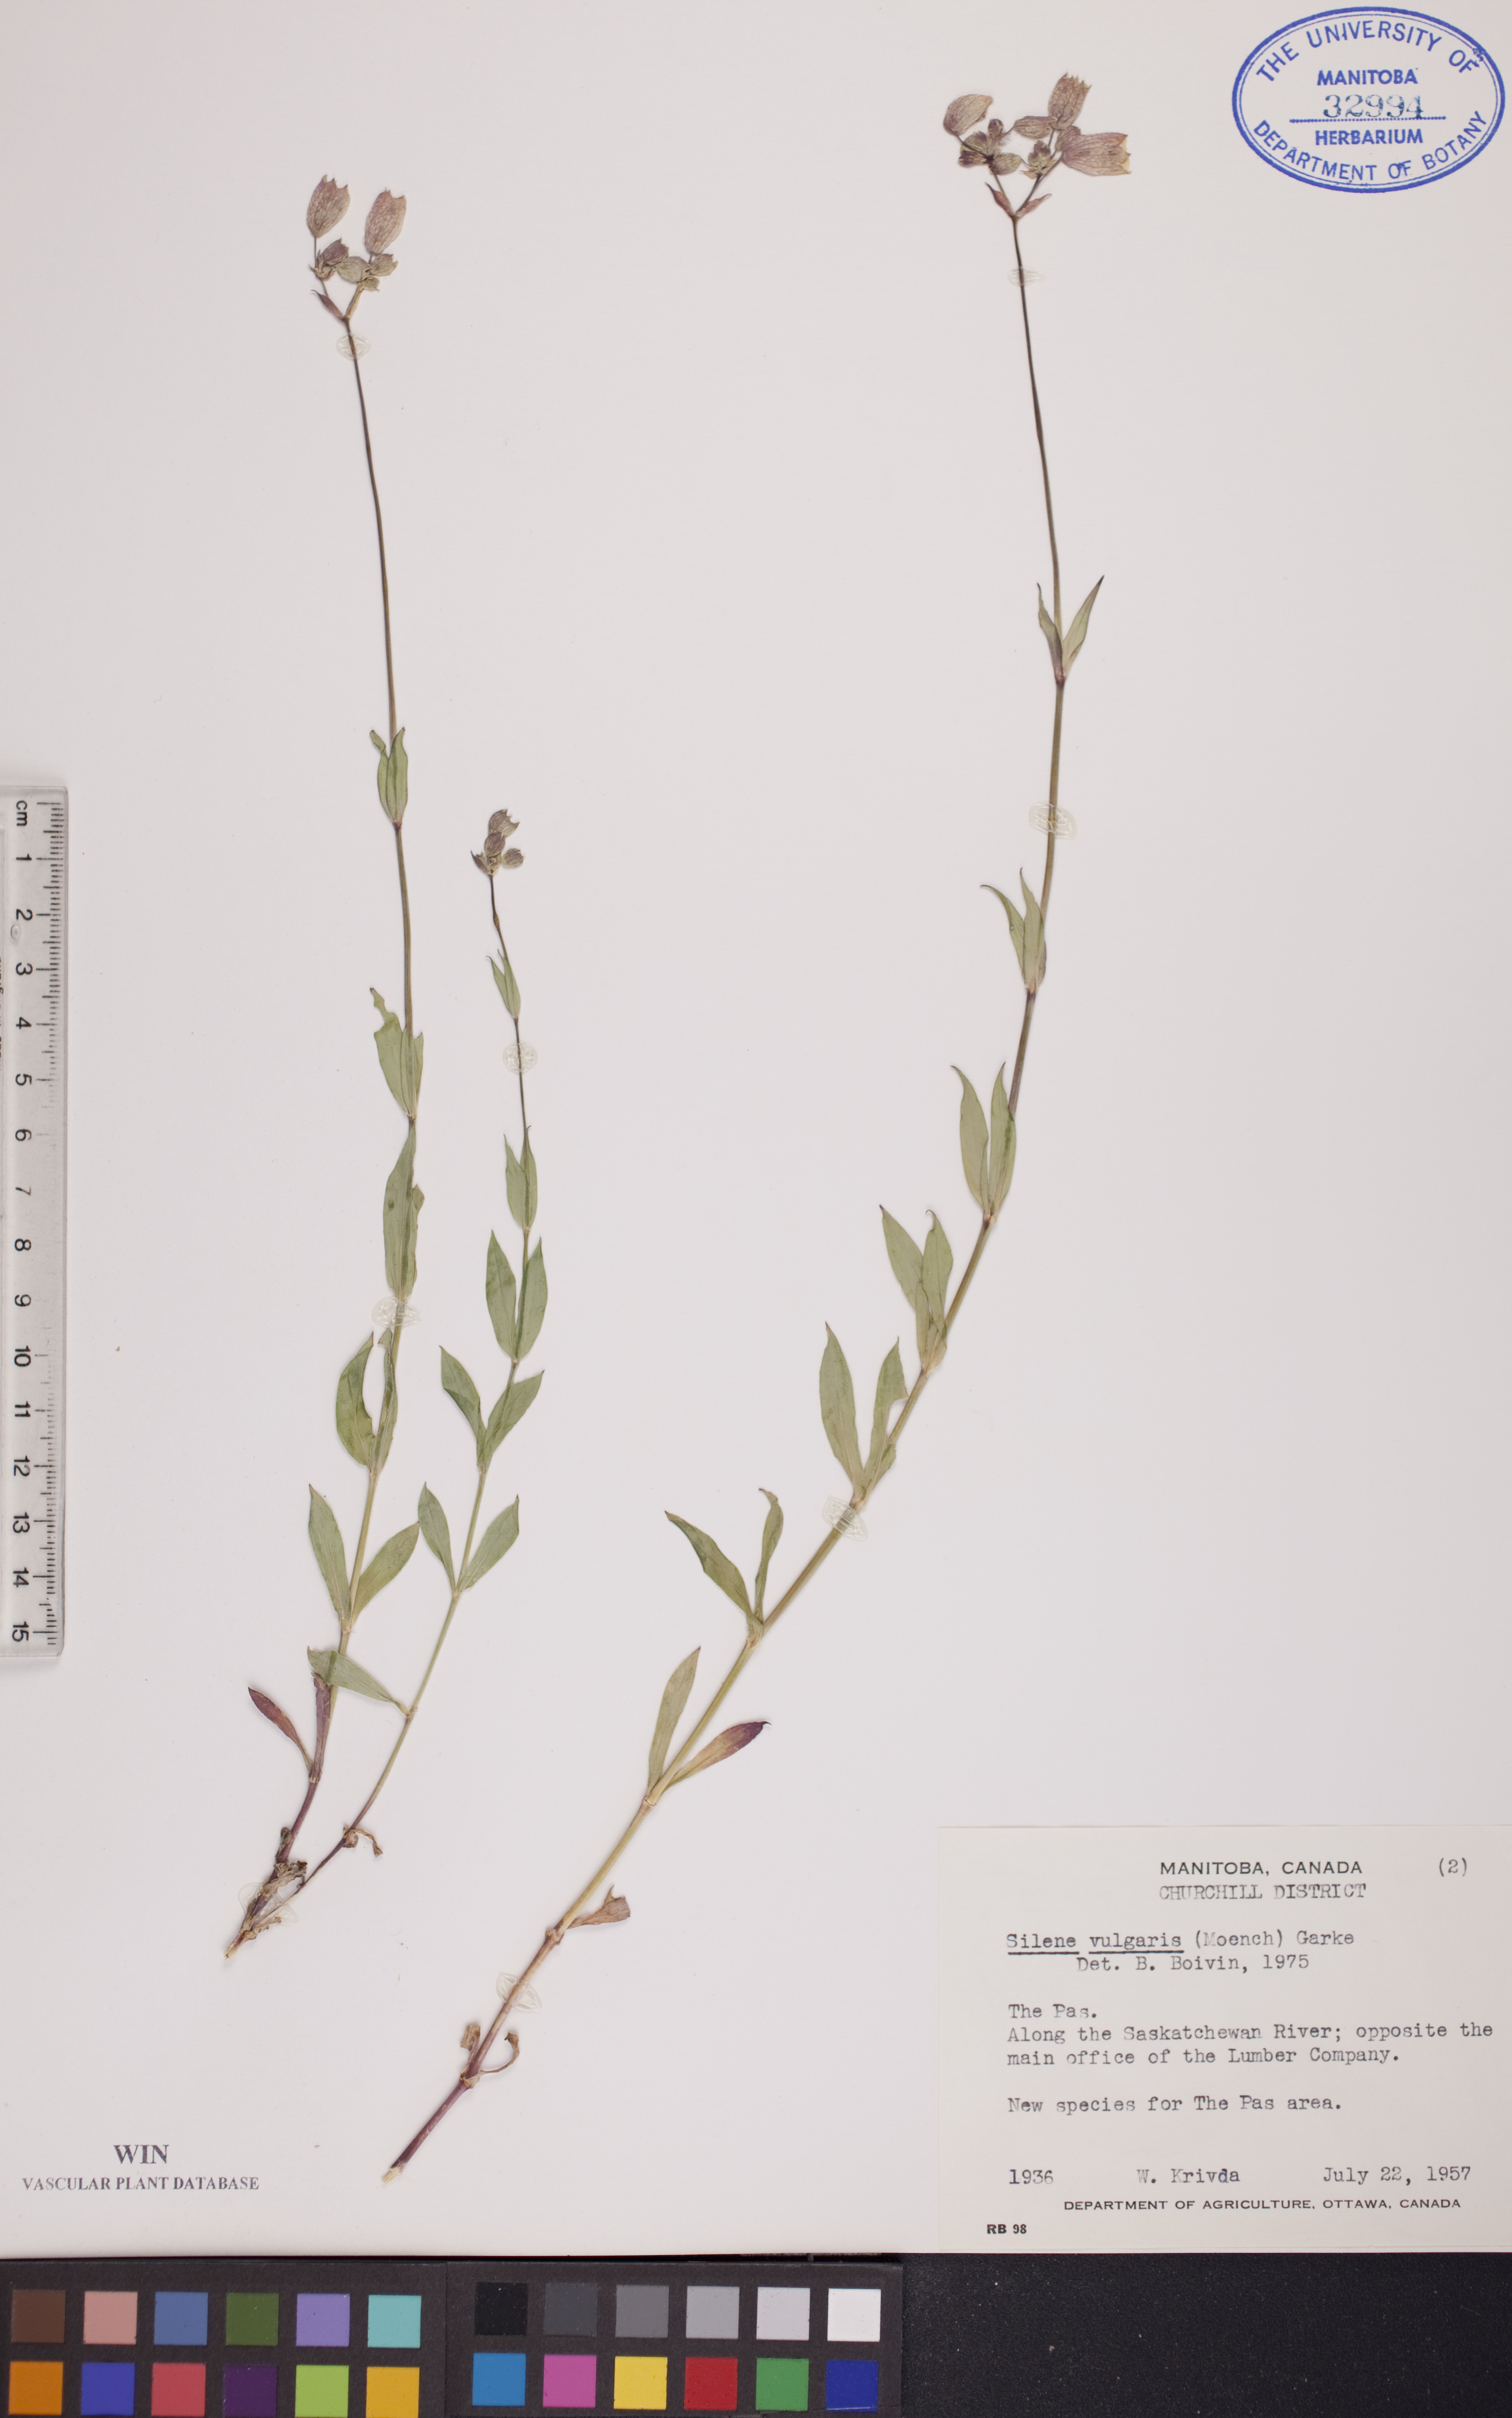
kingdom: Plantae
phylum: Tracheophyta
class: Magnoliopsida
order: Caryophyllales
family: Caryophyllaceae
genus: Silene
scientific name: Silene vulgaris
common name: Bladder campion
